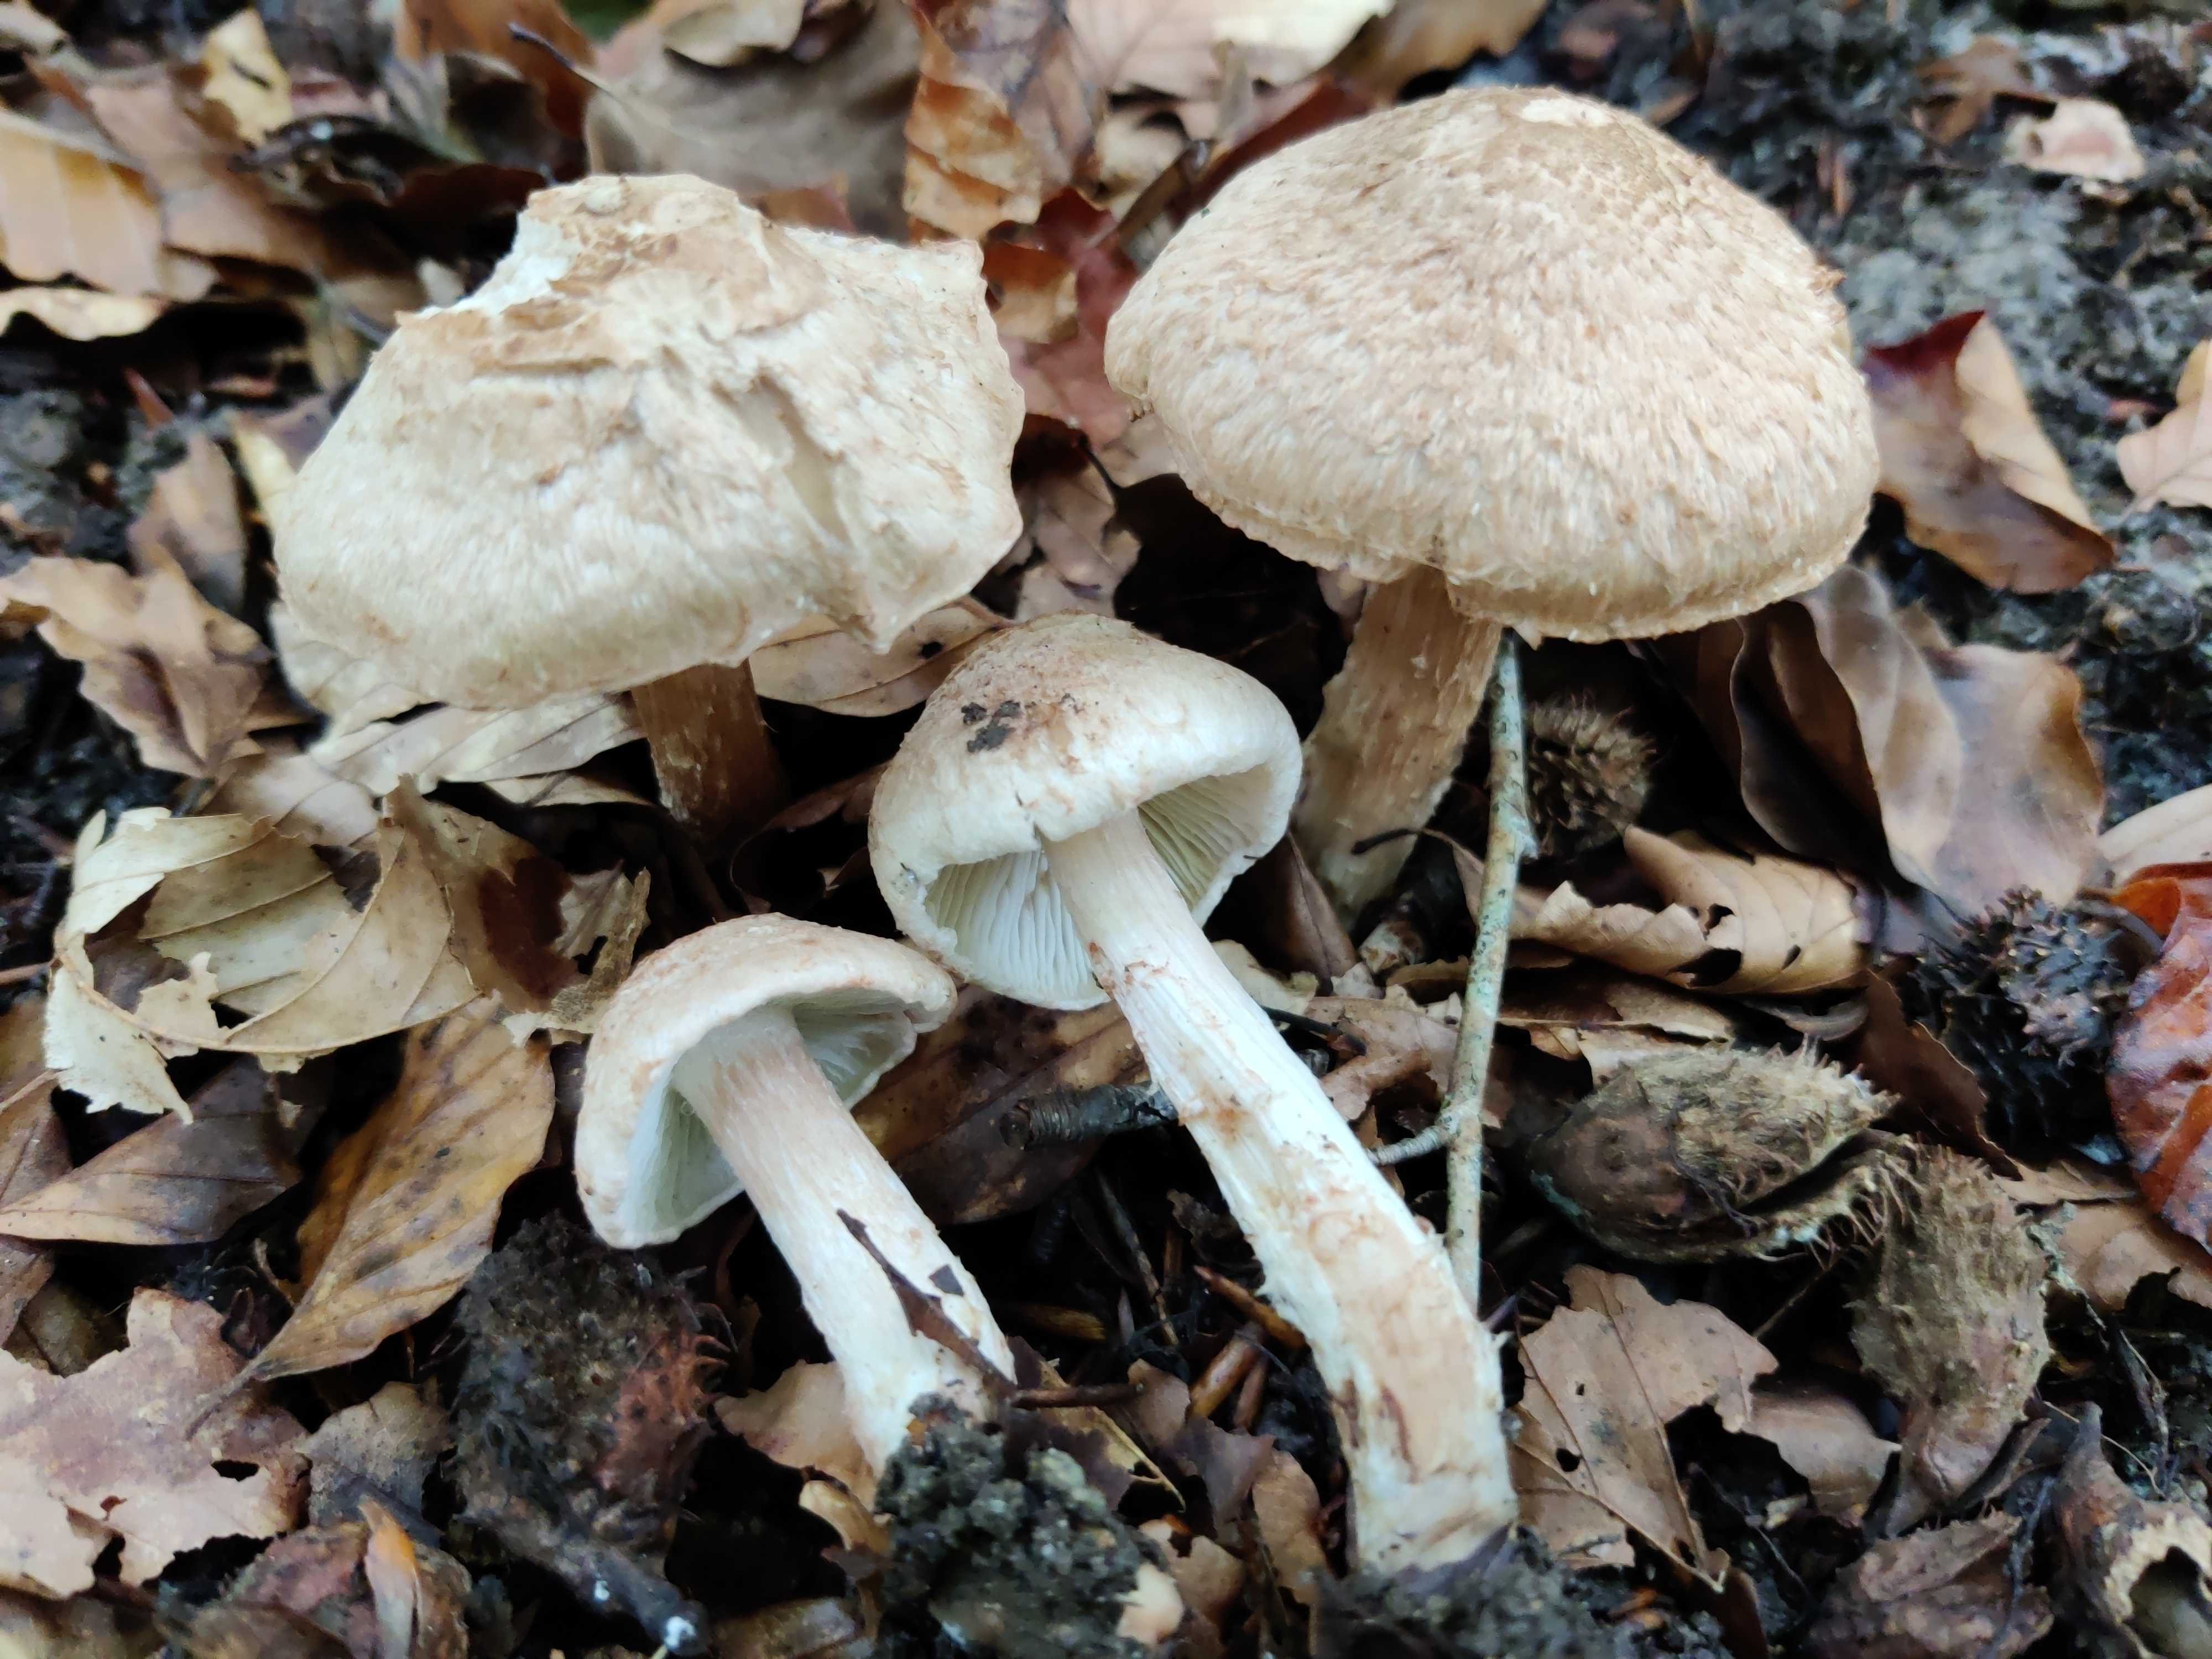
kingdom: Fungi
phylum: Basidiomycota
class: Agaricomycetes
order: Agaricales
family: Inocybaceae
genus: Inosperma
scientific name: Inosperma bongardii
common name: Bongards trævlhat
